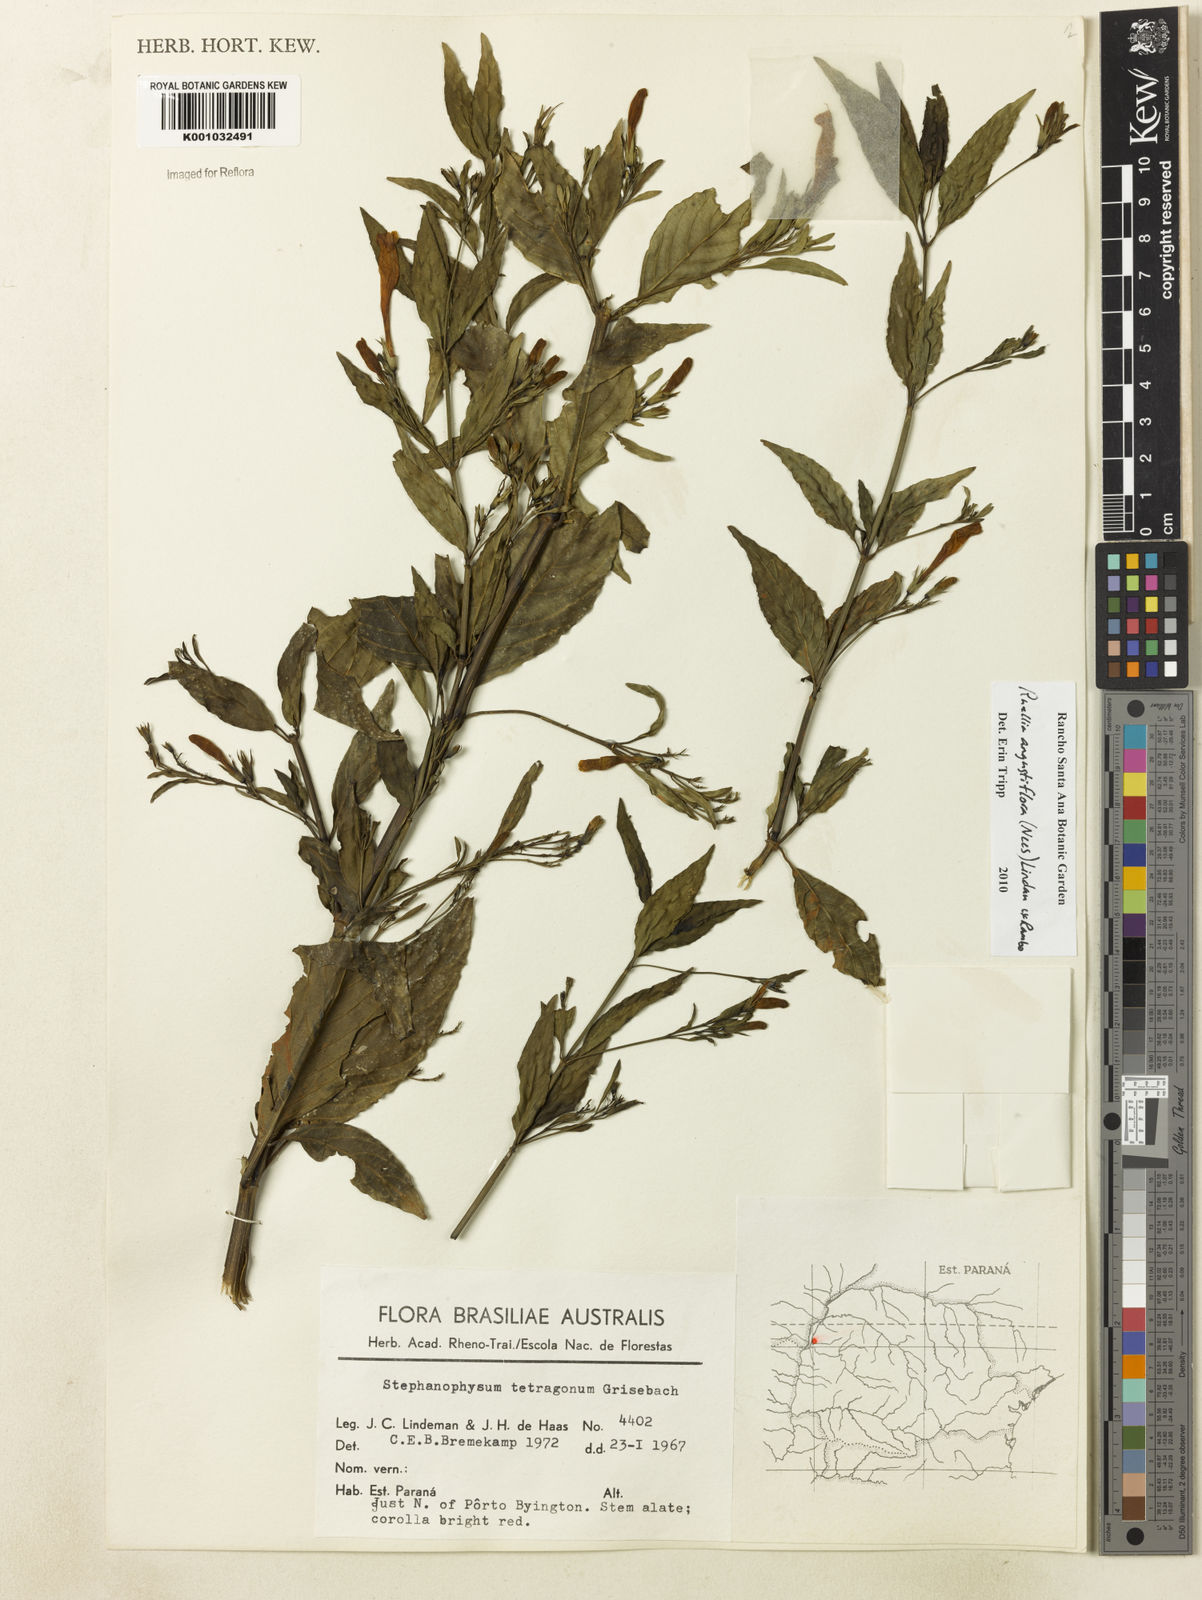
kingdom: Plantae
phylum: Tracheophyta
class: Magnoliopsida
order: Lamiales
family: Acanthaceae
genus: Ruellia
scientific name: Ruellia angustiflora
